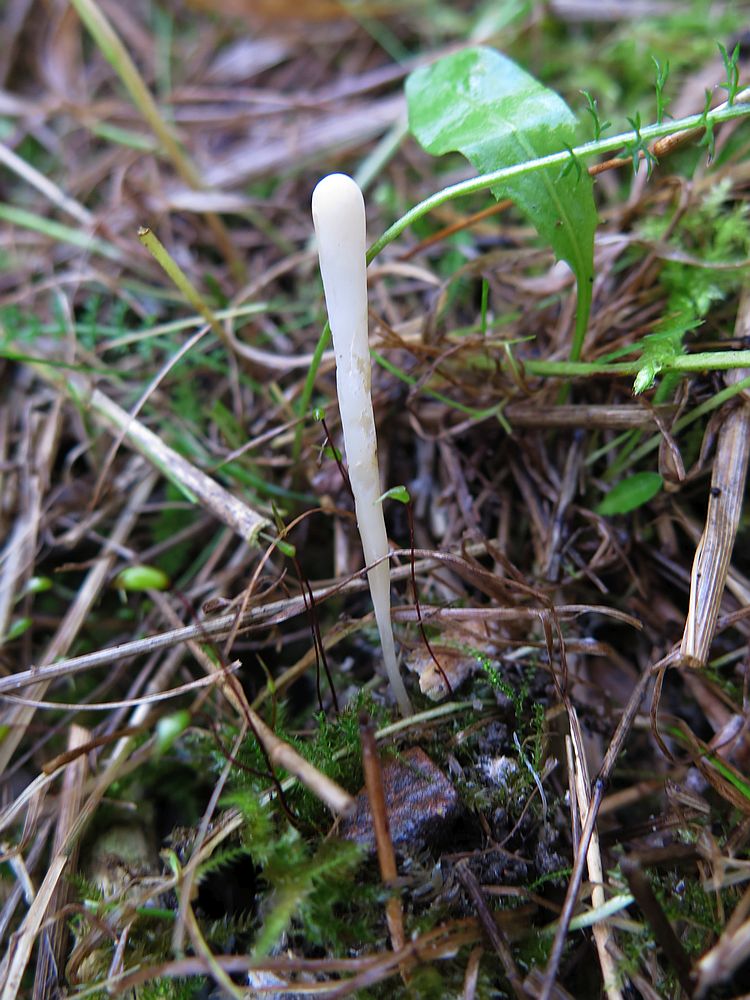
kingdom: Fungi
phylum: Basidiomycota
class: Agaricomycetes
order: Agaricales
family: Clavariaceae
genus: Clavaria
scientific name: Clavaria falcata
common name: hvid køllesvamp
